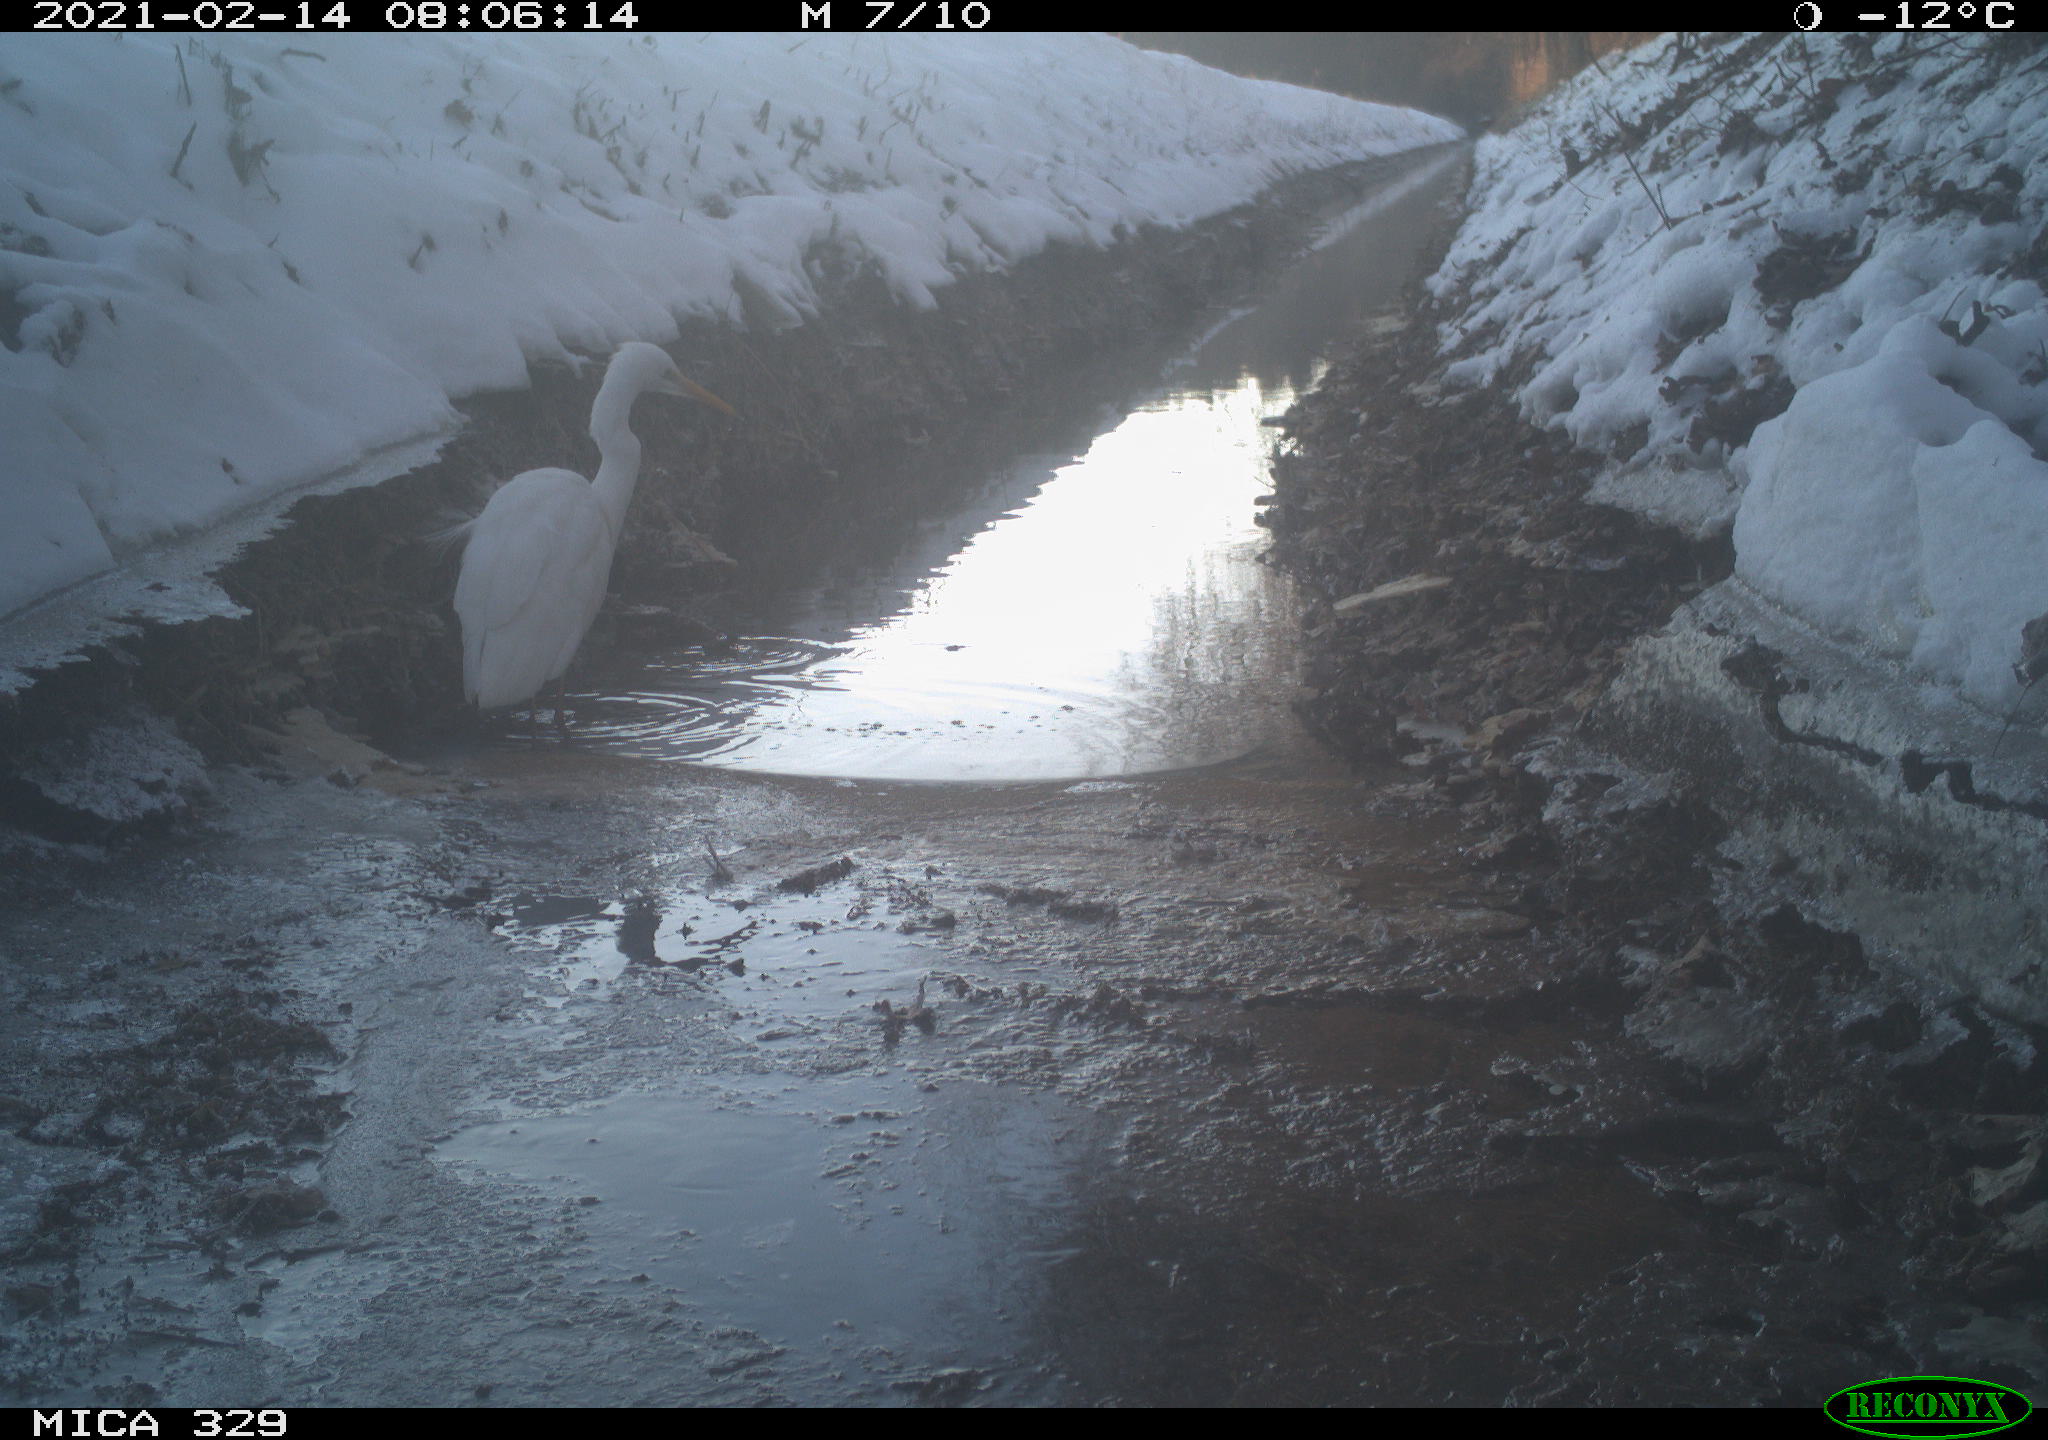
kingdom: Animalia
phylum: Chordata
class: Aves
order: Pelecaniformes
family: Ardeidae
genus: Ardea
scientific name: Ardea alba
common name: Great egret
